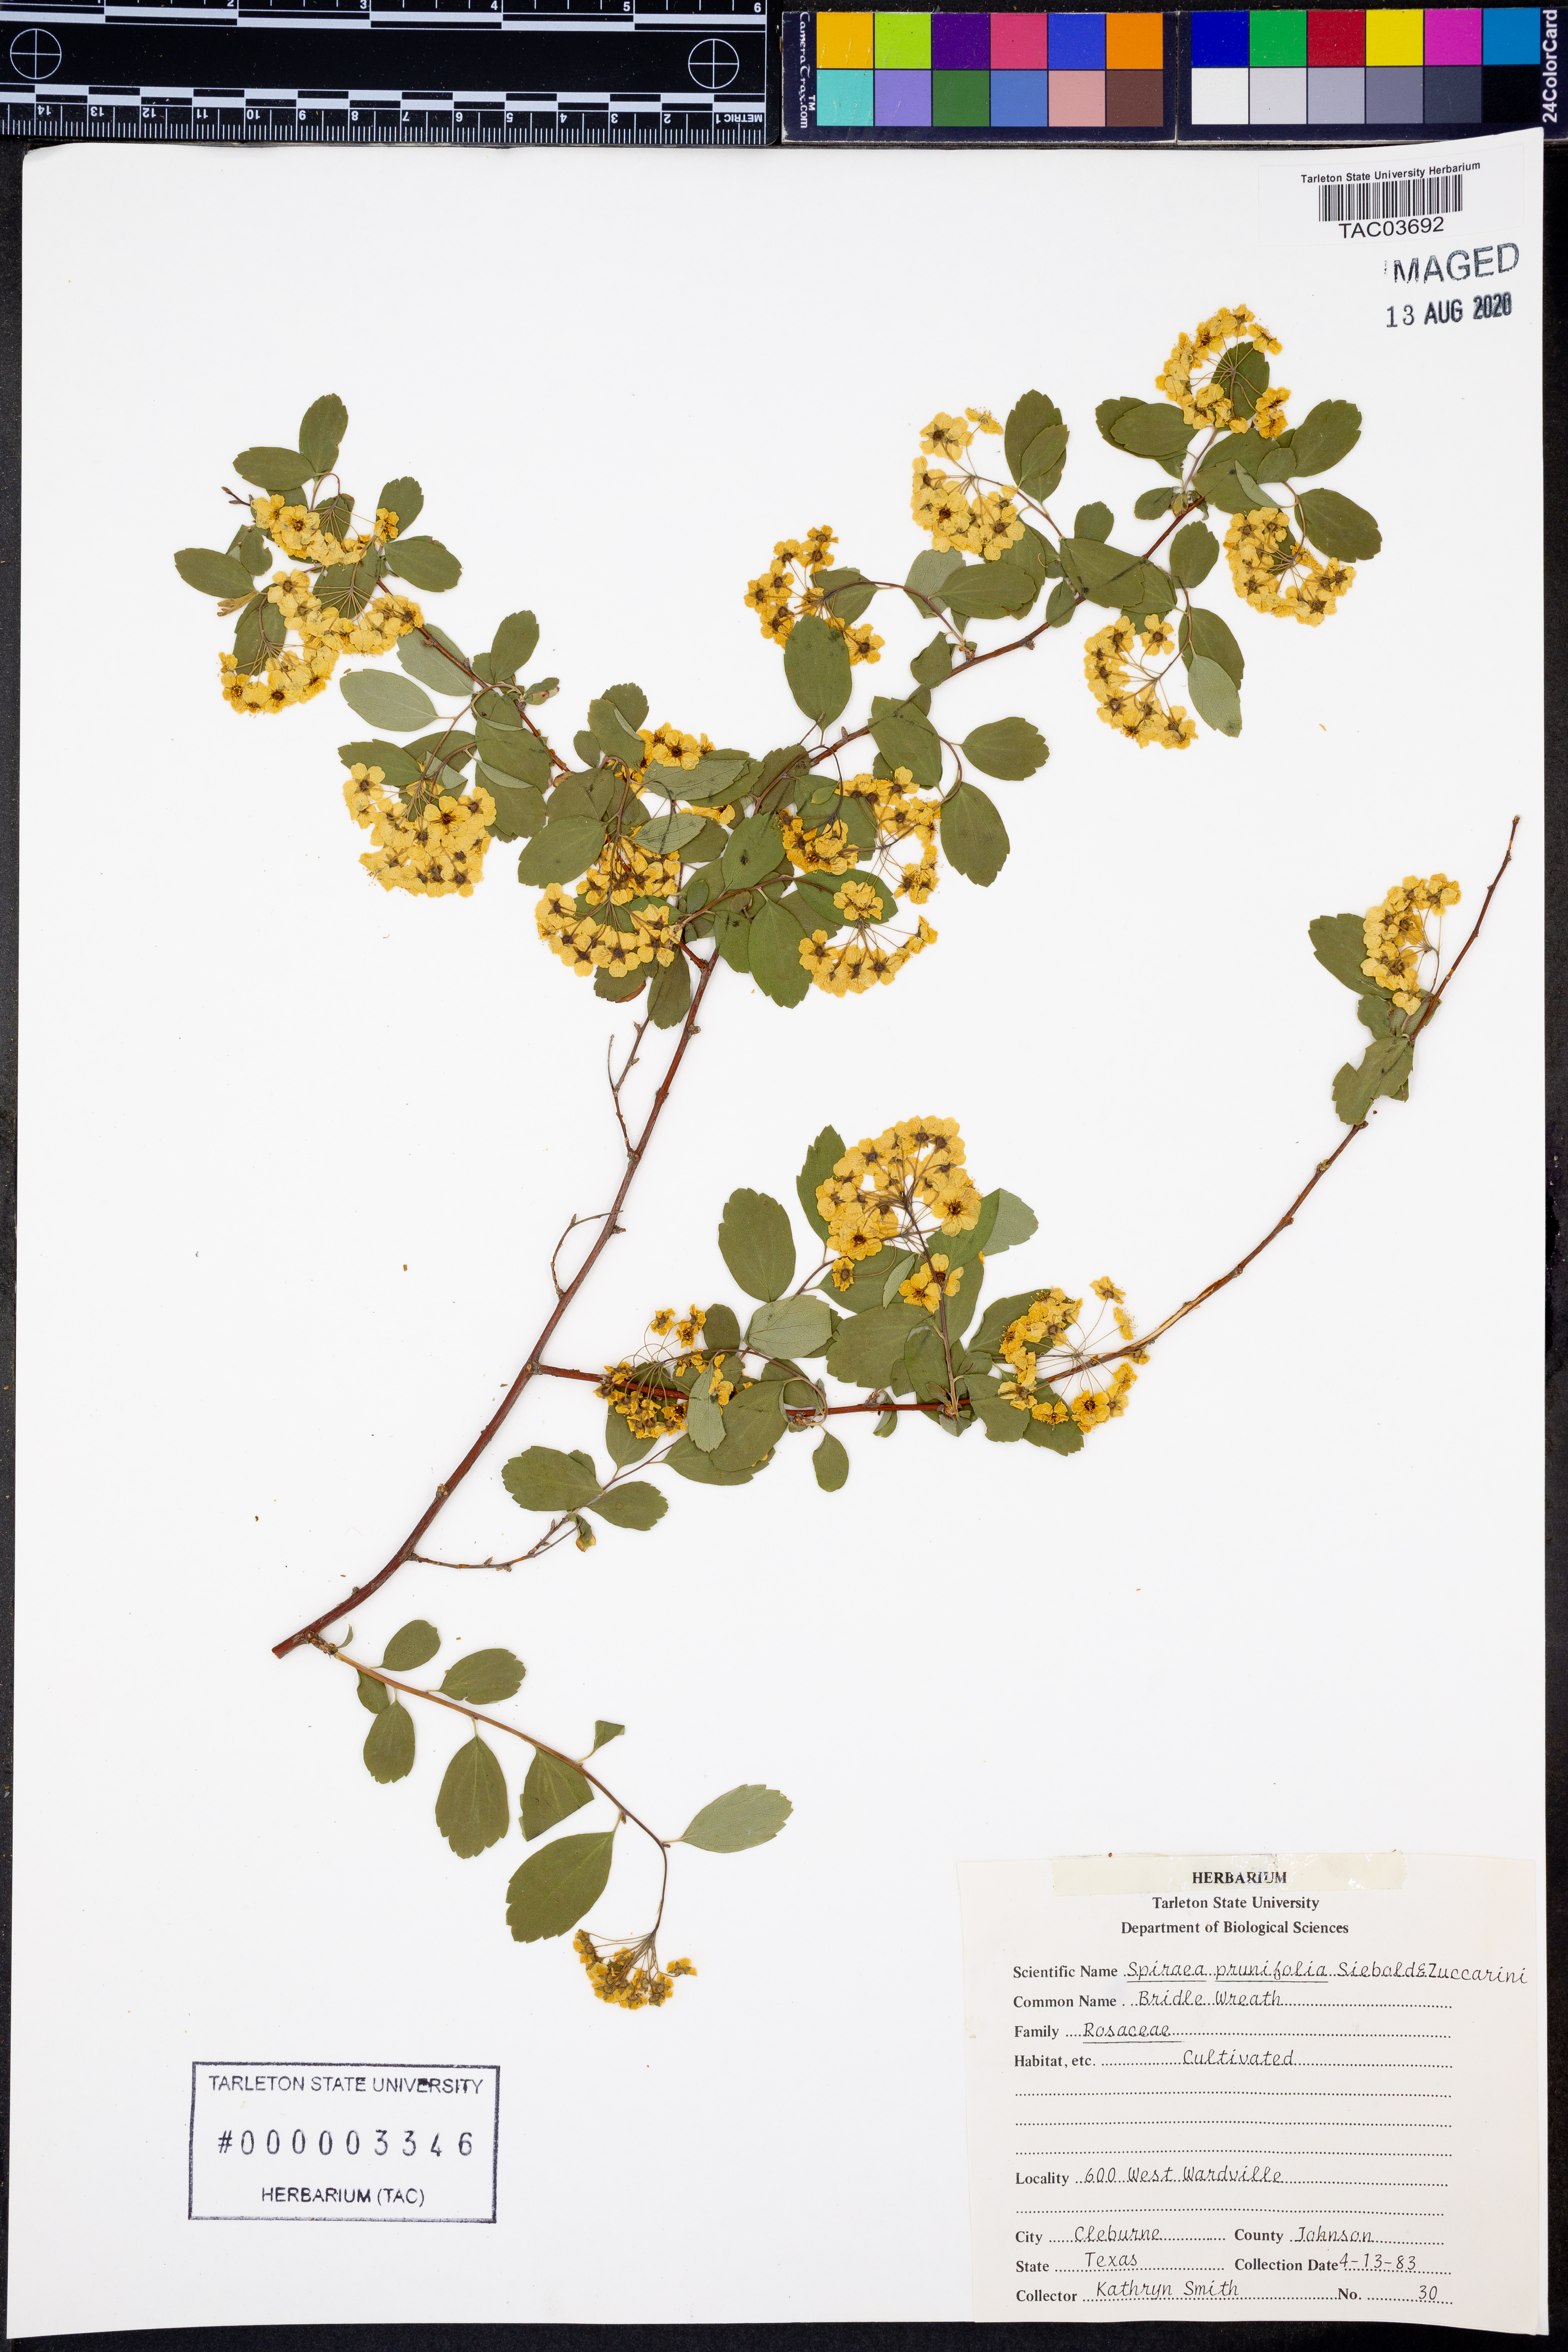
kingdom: Plantae
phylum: Tracheophyta
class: Magnoliopsida
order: Rosales
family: Rosaceae
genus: Spiraea
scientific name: Spiraea prunifolia
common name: Bridal-wreath spiraea
